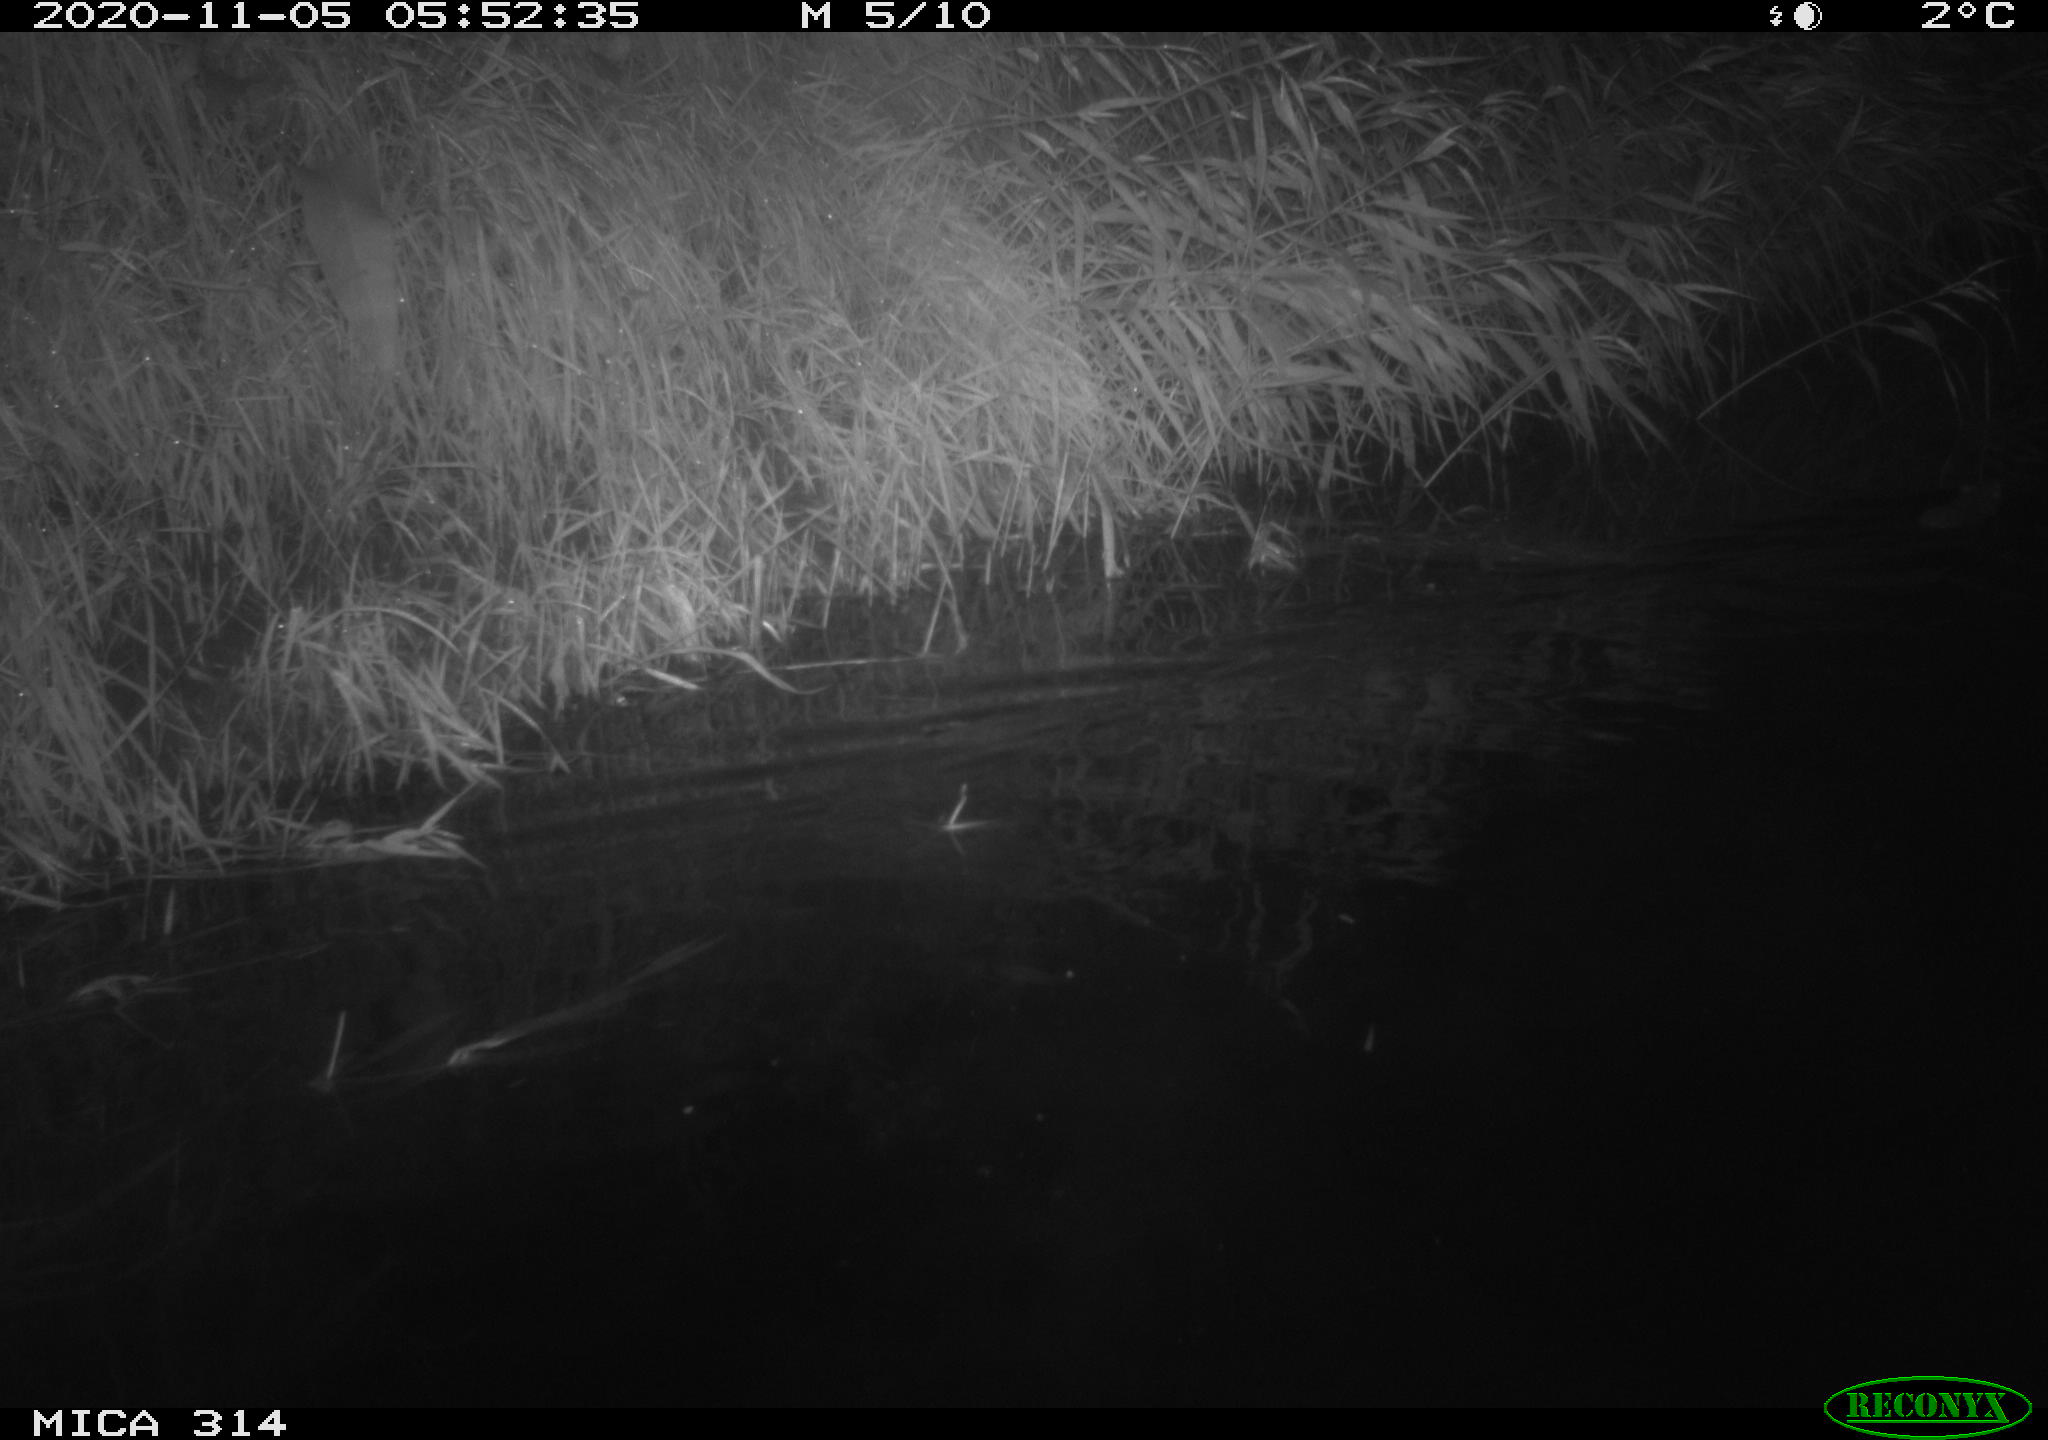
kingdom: Animalia
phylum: Chordata
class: Mammalia
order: Rodentia
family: Muridae
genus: Rattus
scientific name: Rattus norvegicus
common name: Brown rat
